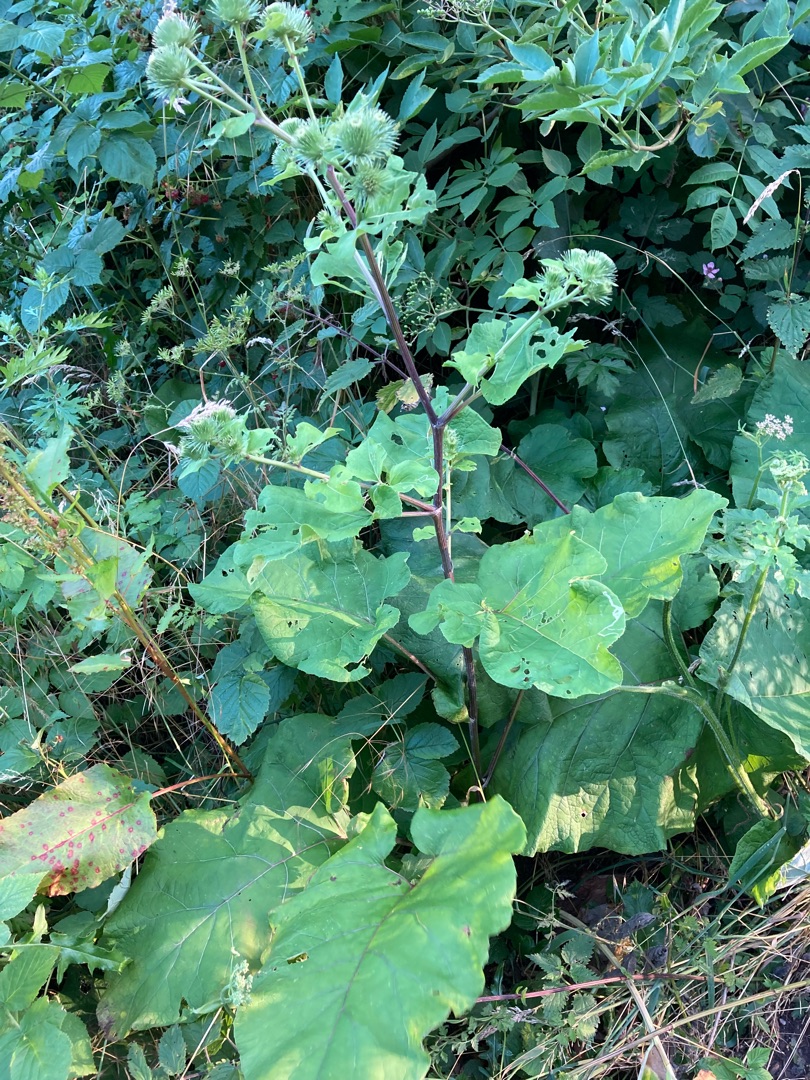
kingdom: Plantae
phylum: Tracheophyta
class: Magnoliopsida
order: Asterales
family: Asteraceae
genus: Arctium
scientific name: Arctium lappa
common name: Glat burre
